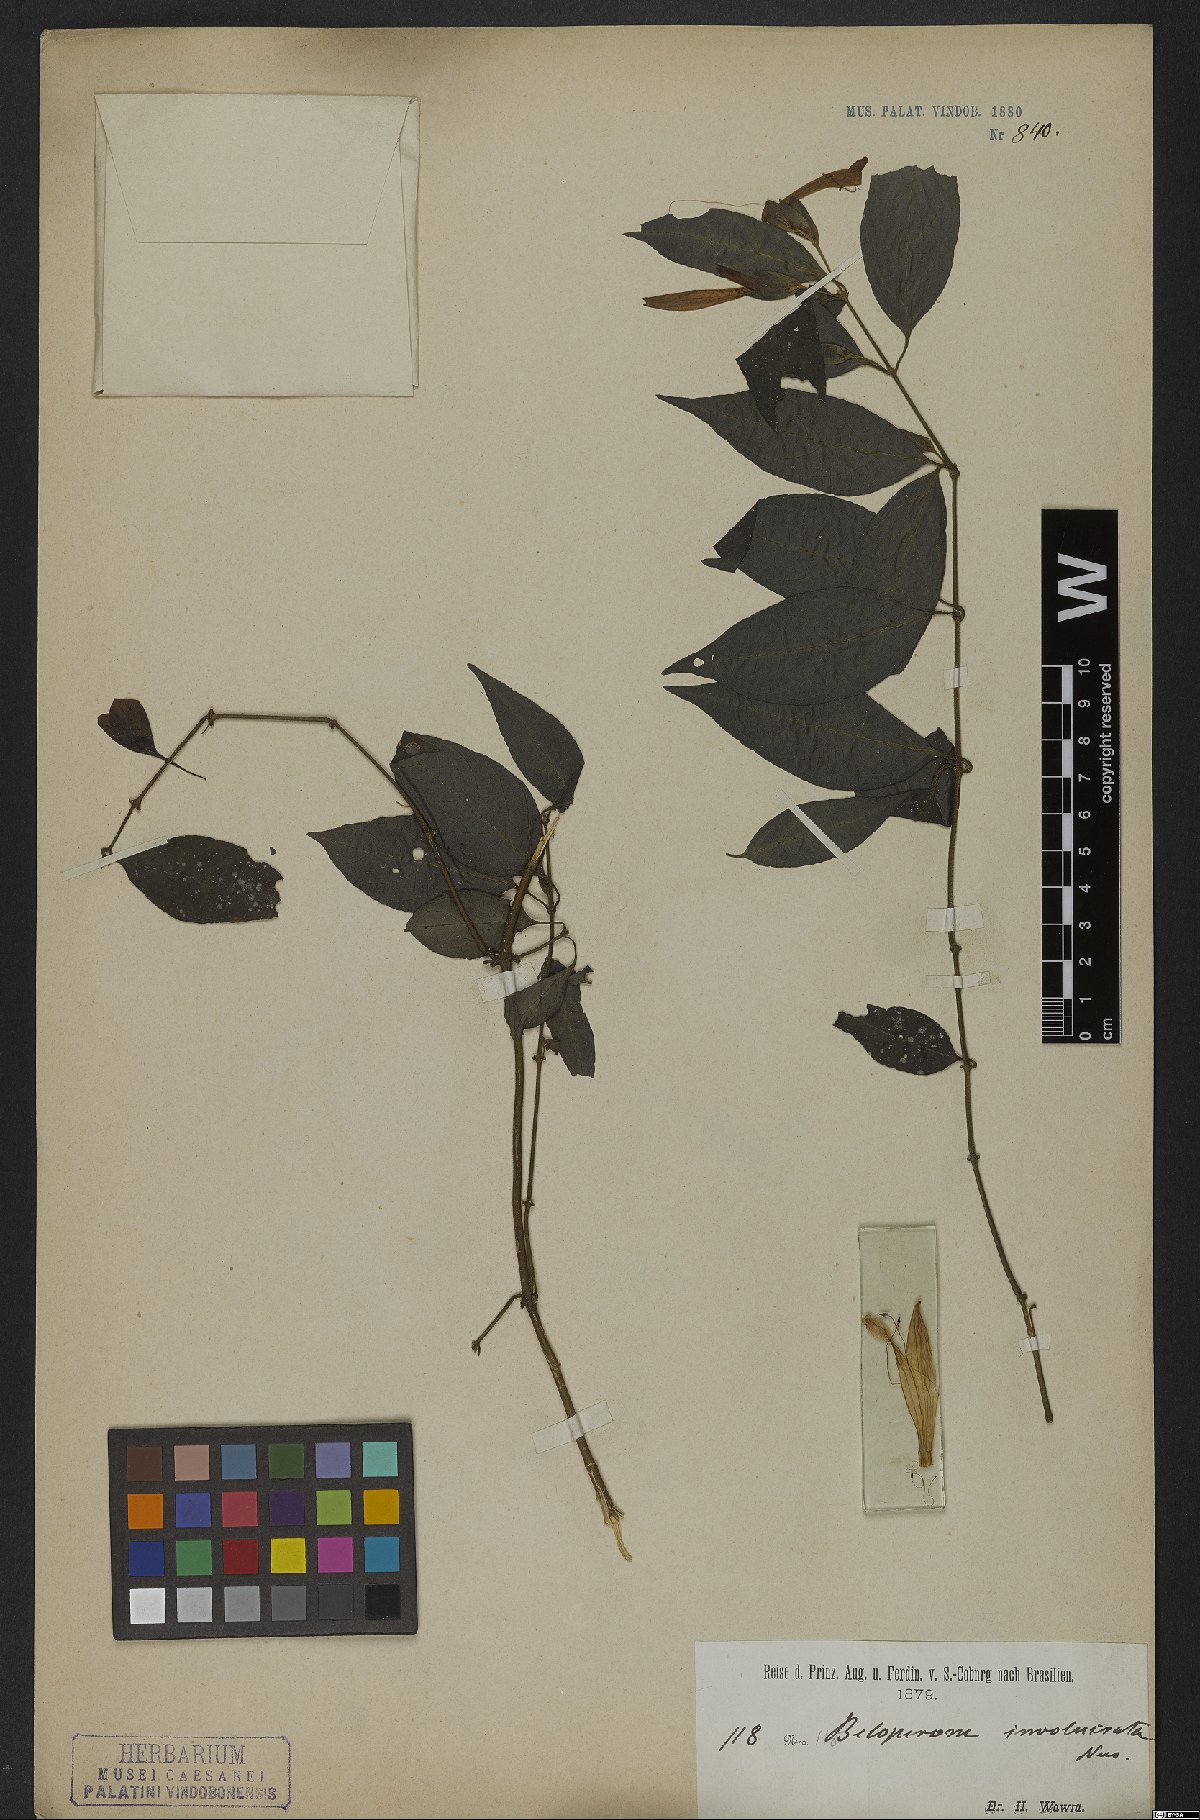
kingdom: Plantae
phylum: Tracheophyta
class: Magnoliopsida
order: Lamiales
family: Acanthaceae
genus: Justicia
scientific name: Justicia involucrata
